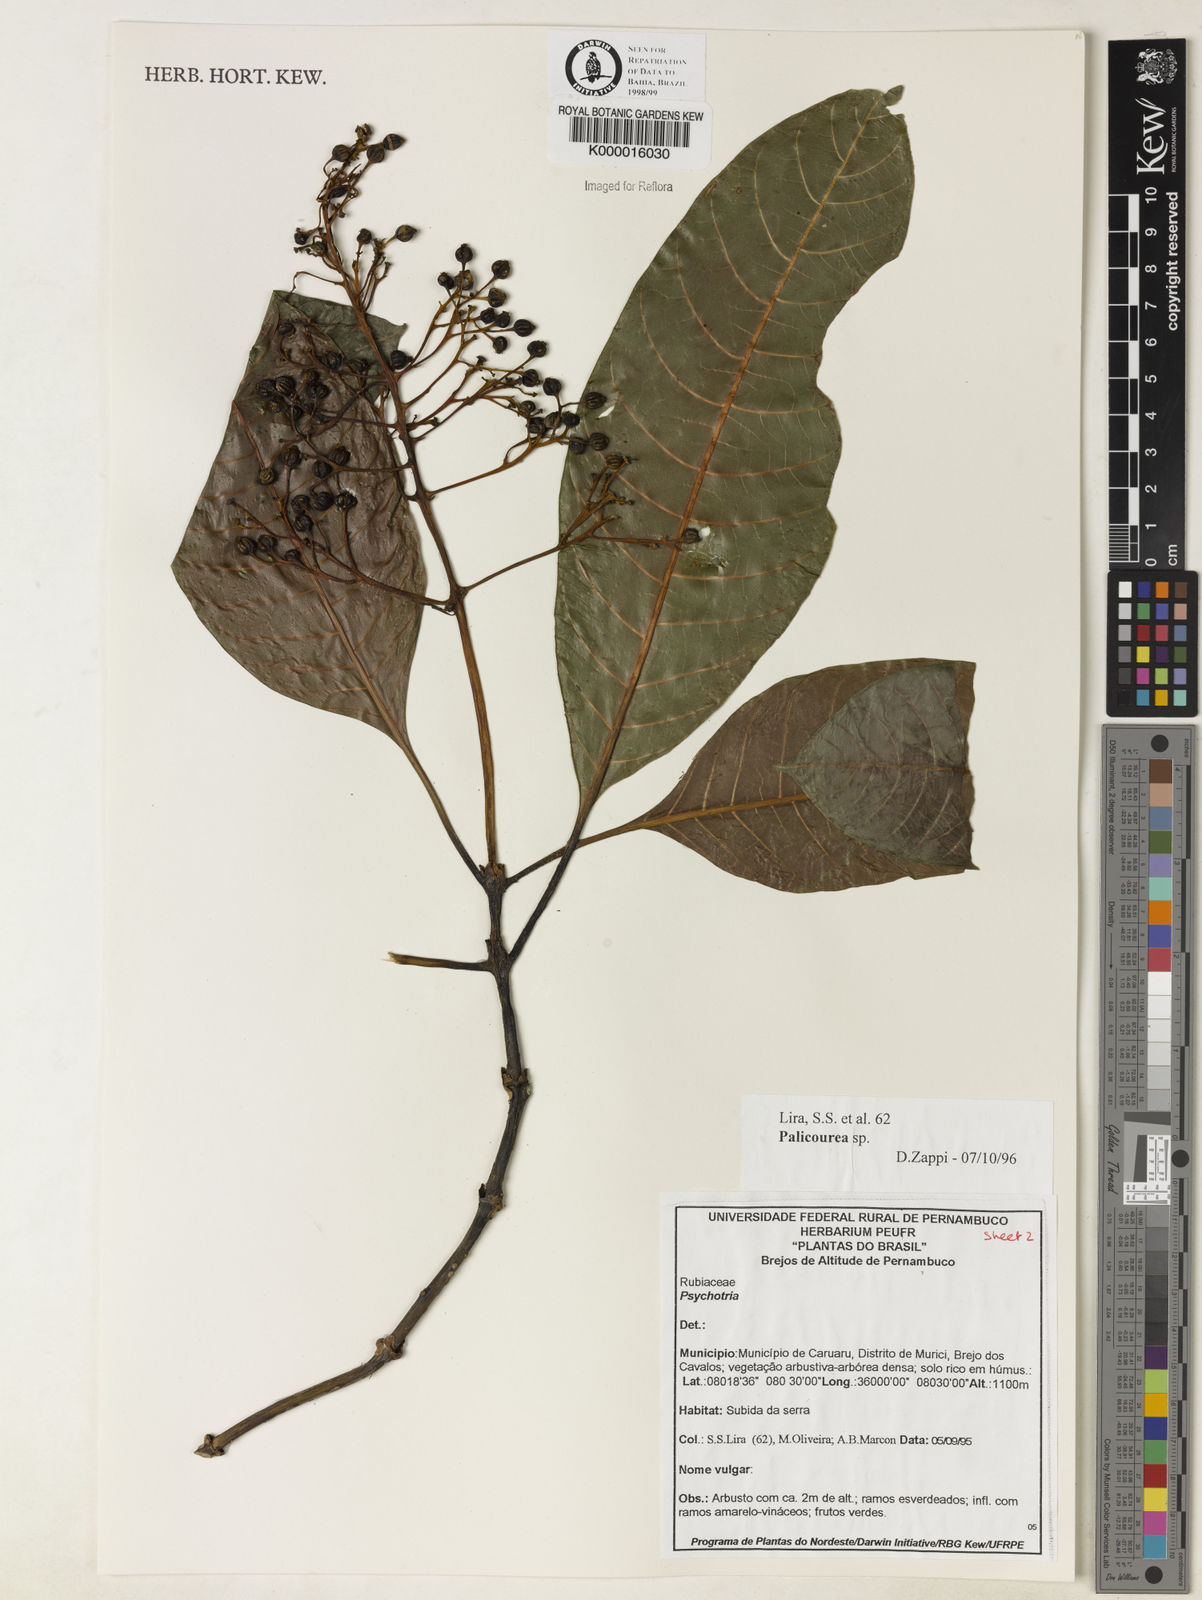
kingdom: Plantae
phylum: Tracheophyta
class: Magnoliopsida
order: Gentianales
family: Rubiaceae
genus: Palicourea
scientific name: Palicourea blanchetiana
